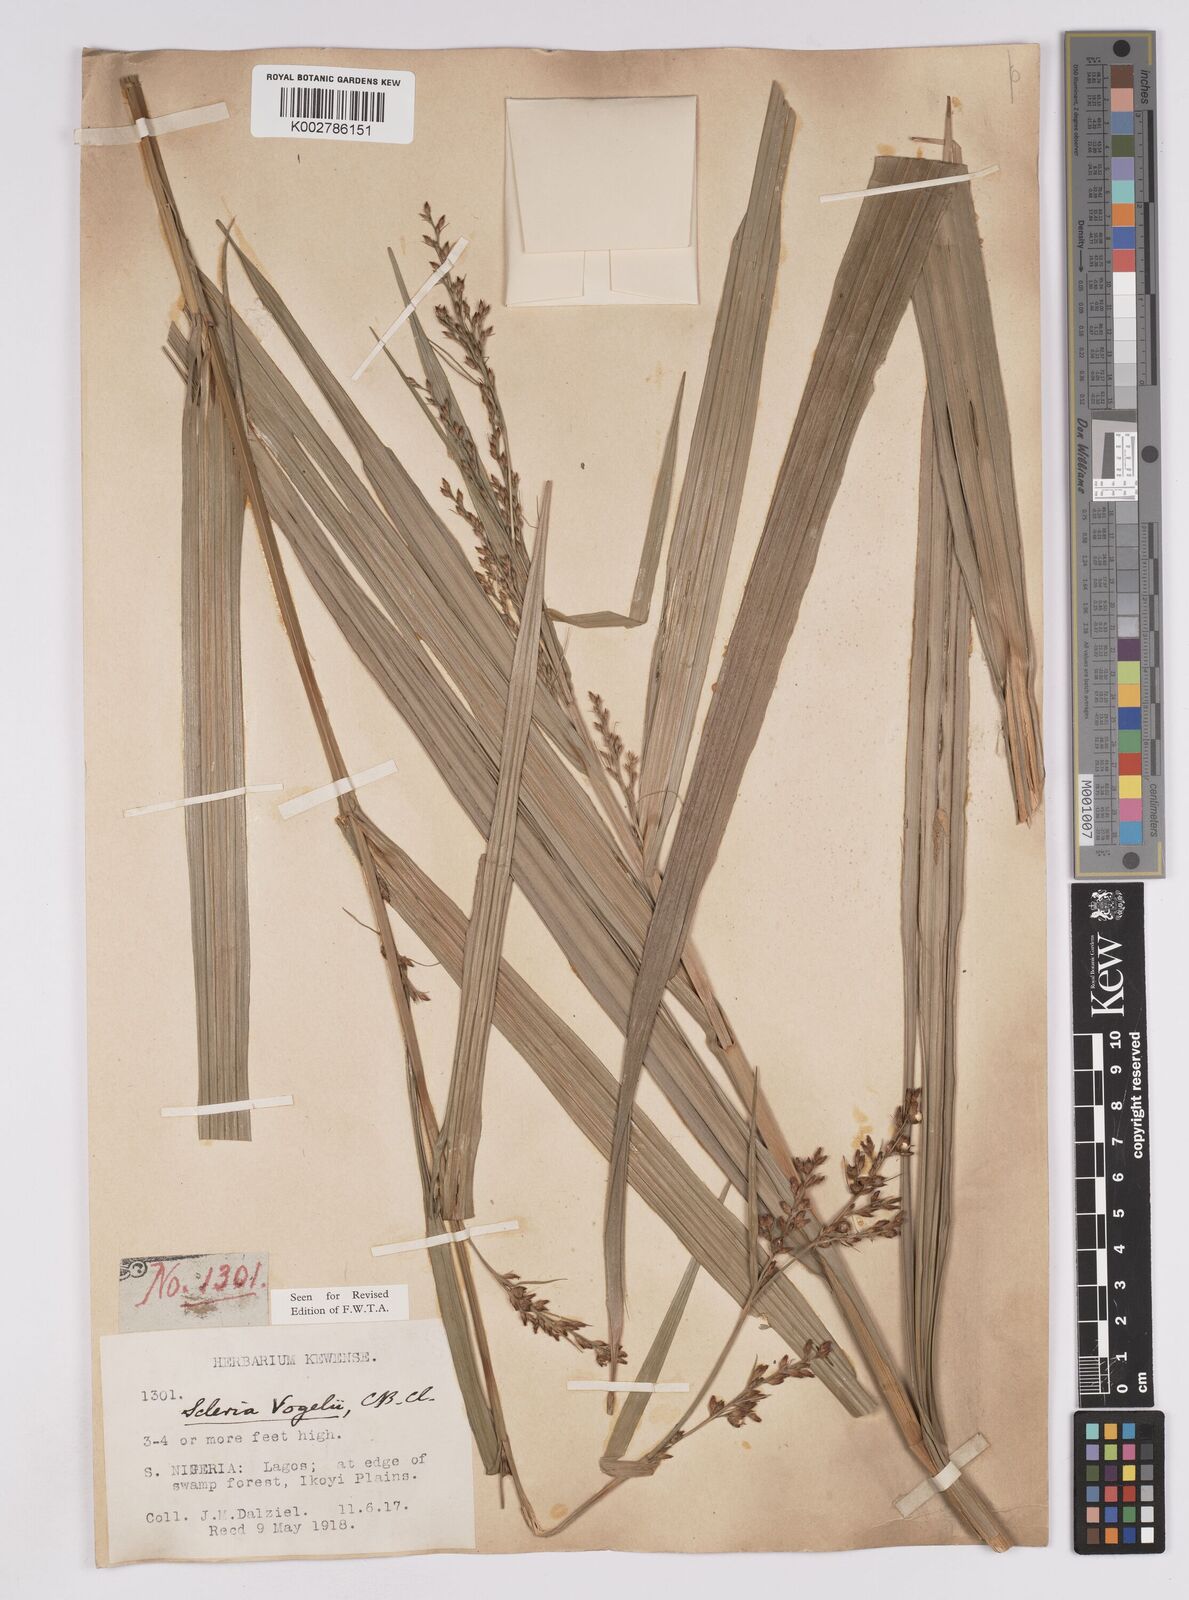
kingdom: Plantae
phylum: Tracheophyta
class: Liliopsida
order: Poales
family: Cyperaceae
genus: Scleria
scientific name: Scleria vogelii
